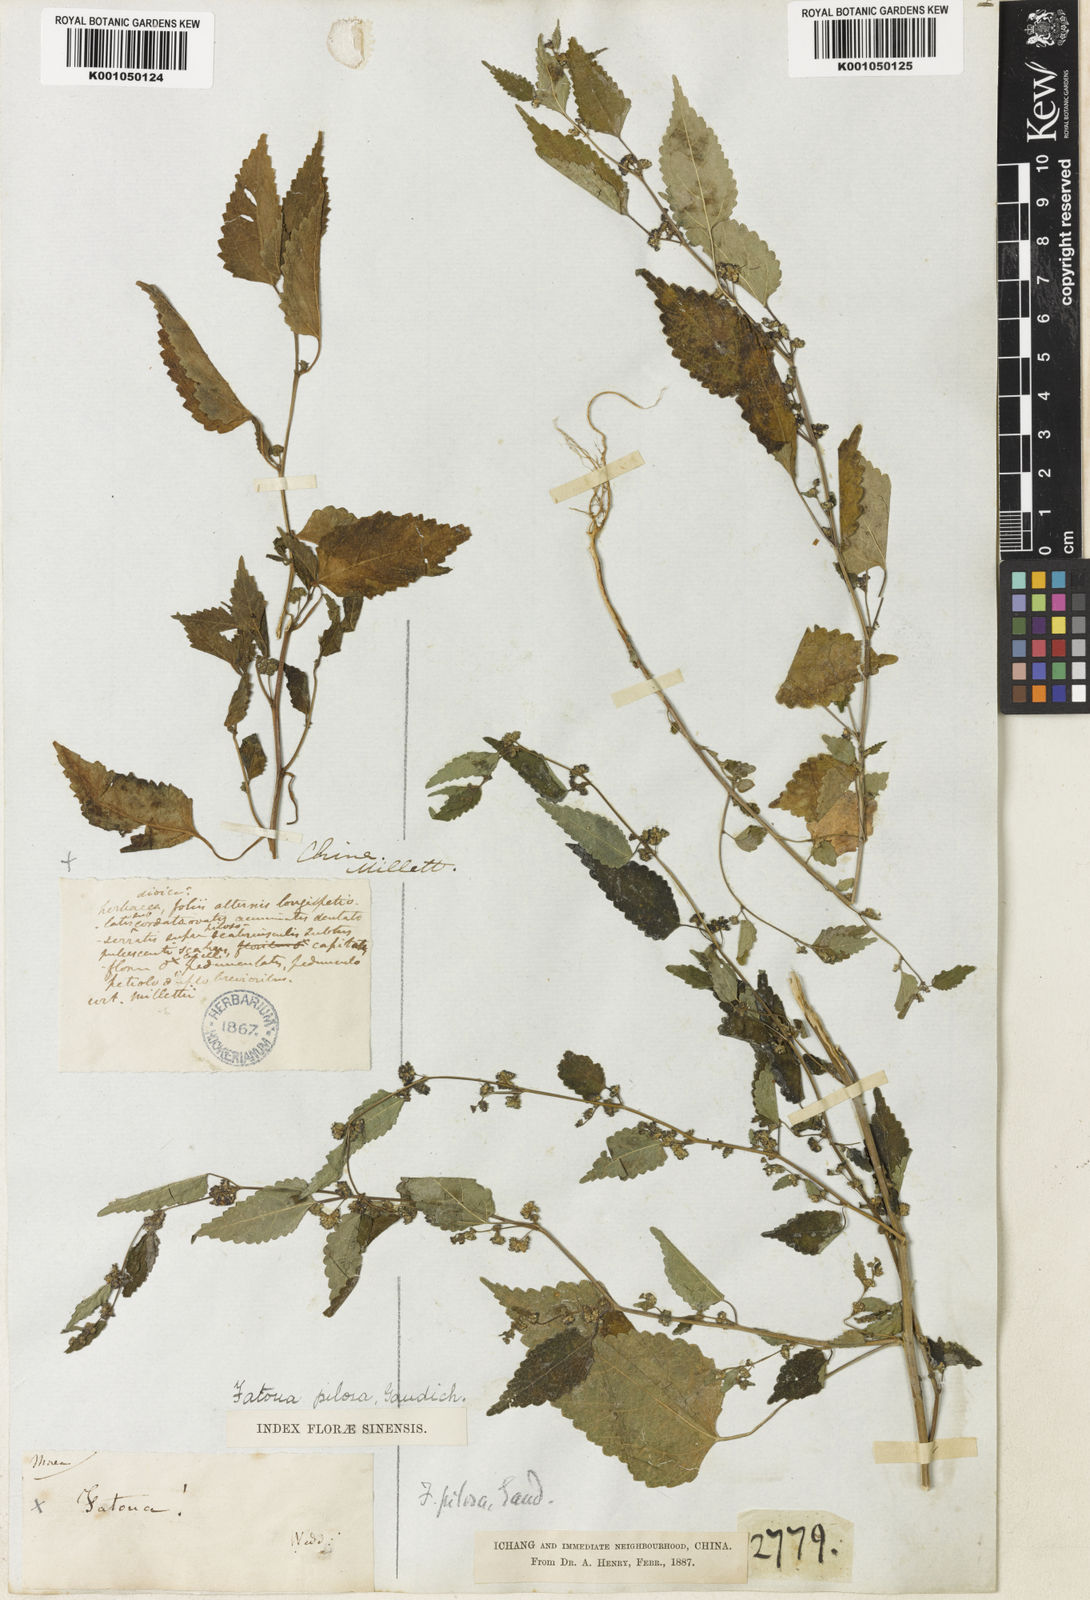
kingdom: Plantae
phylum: Tracheophyta
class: Magnoliopsida
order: Rosales
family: Moraceae
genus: Fatoua
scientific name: Fatoua villosa
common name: Hairy crabweed
